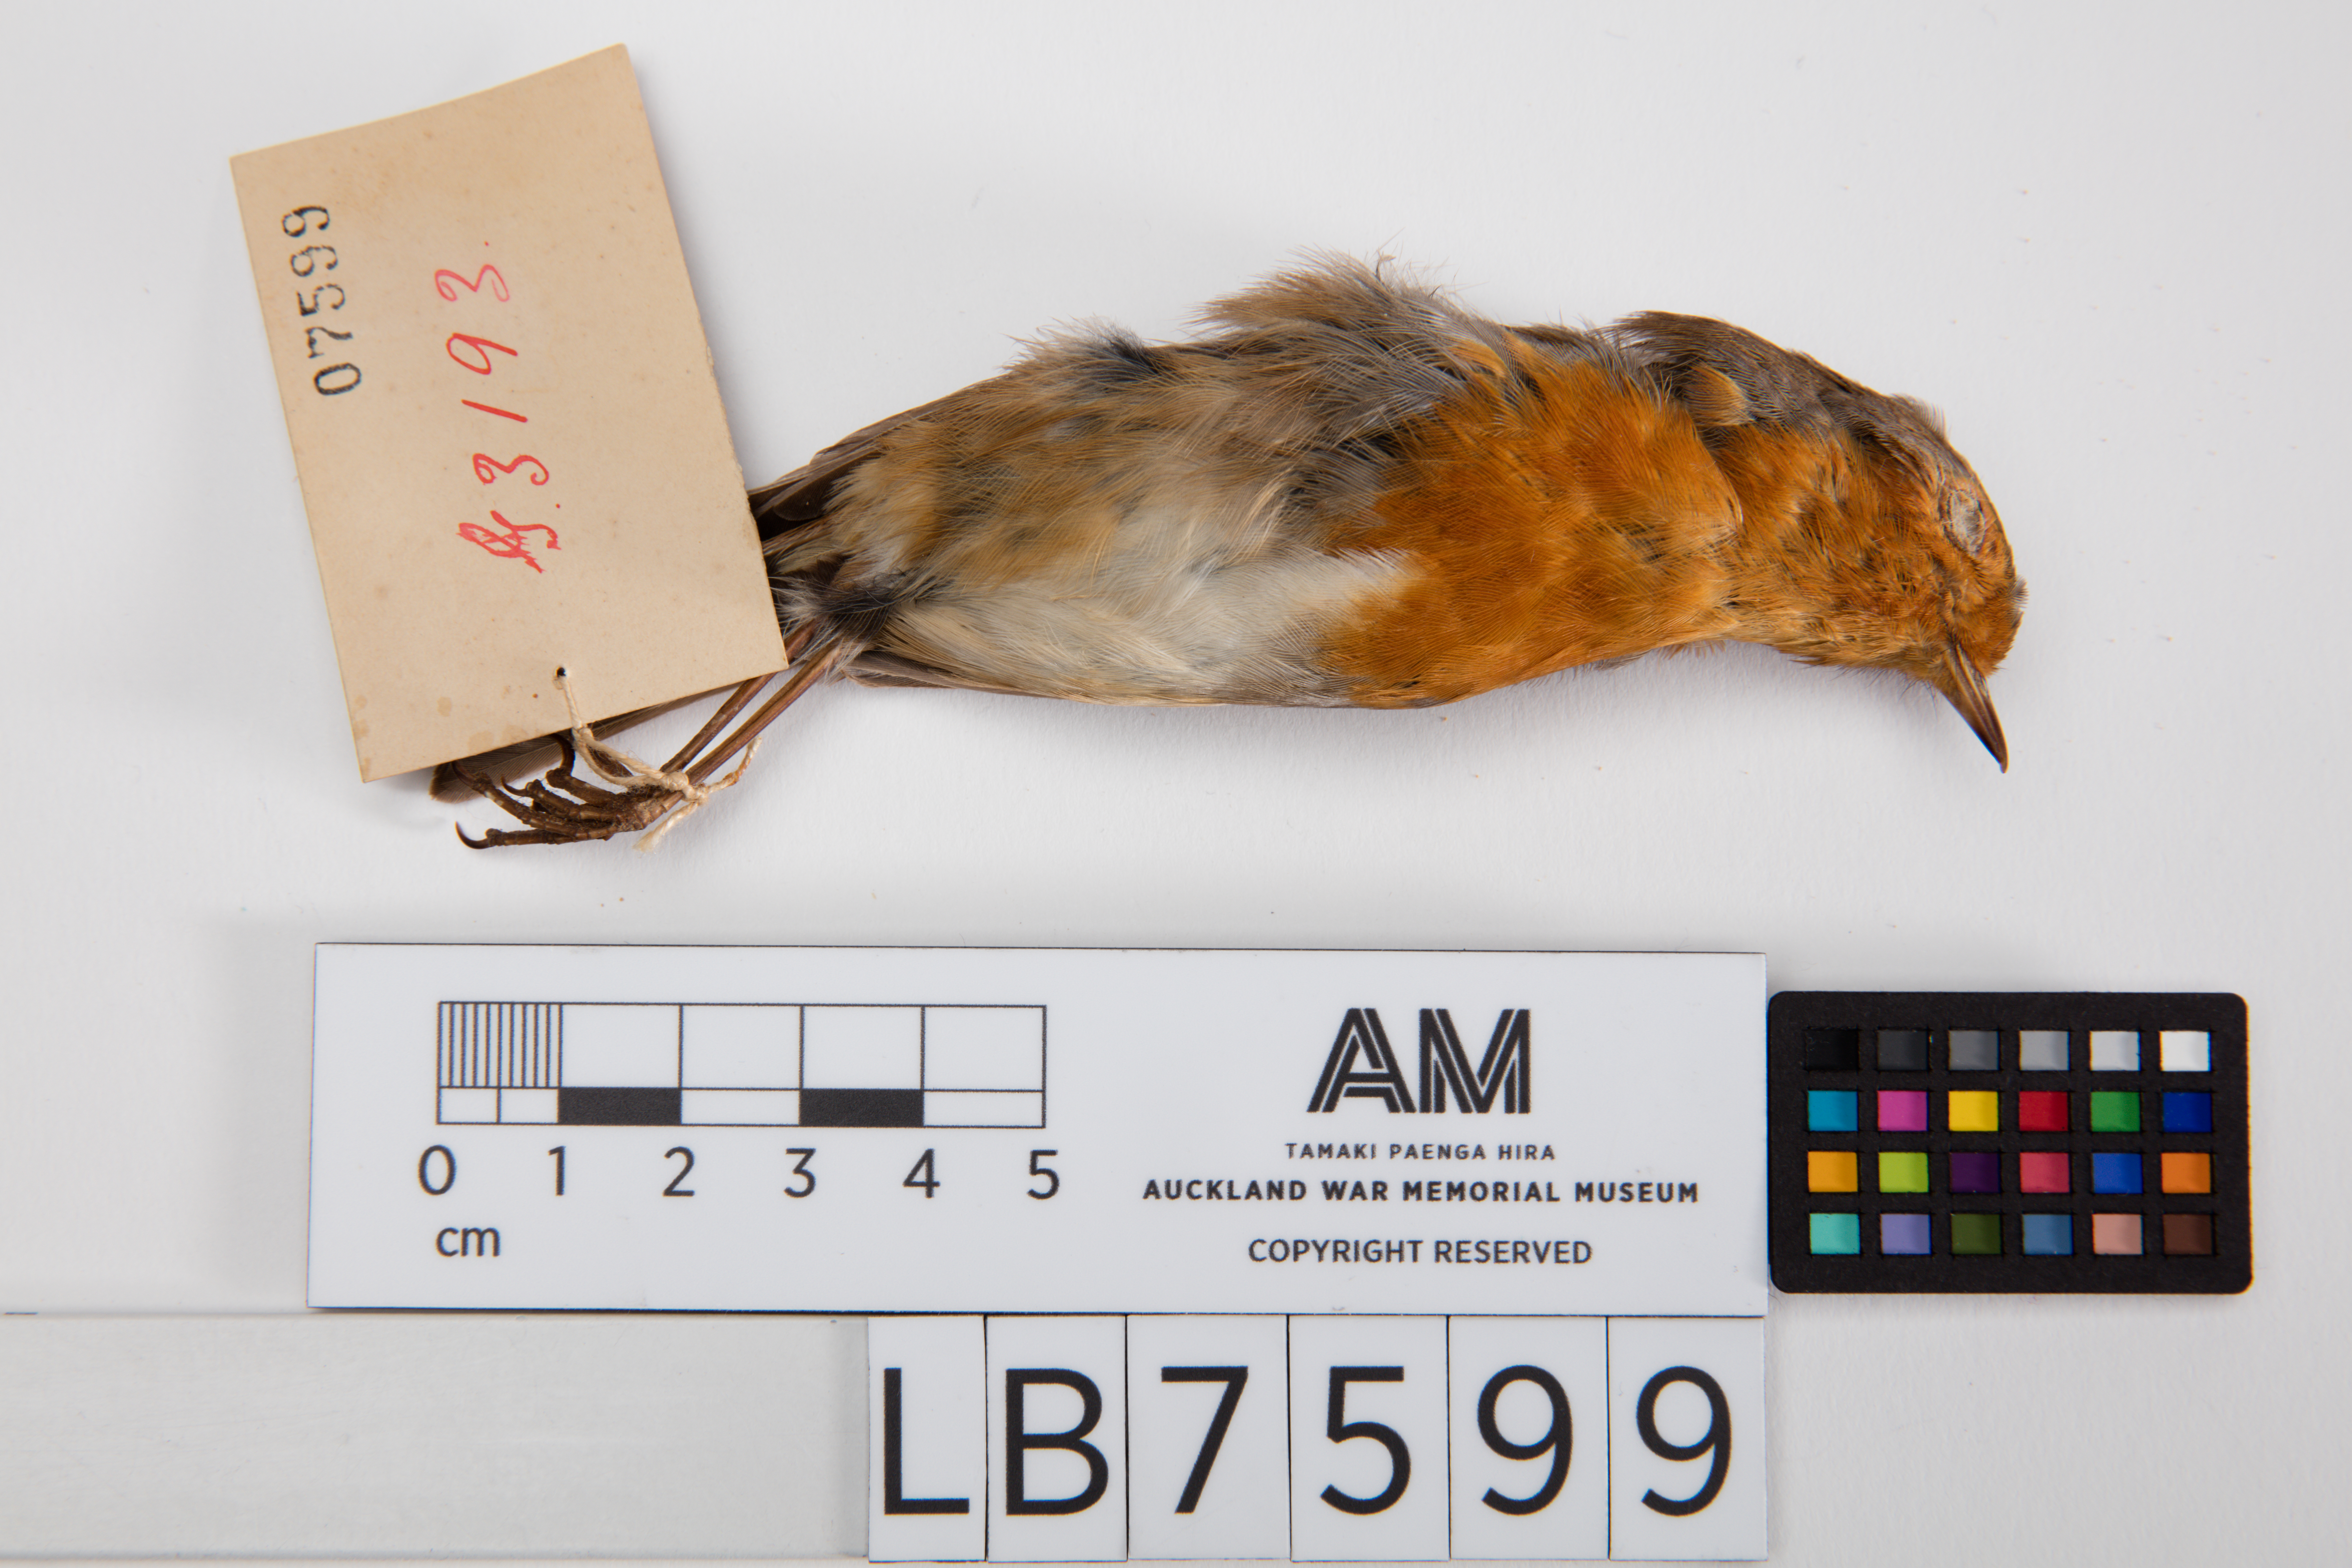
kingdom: Animalia
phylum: Chordata
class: Aves
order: Passeriformes
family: Muscicapidae
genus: Erithacus
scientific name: Erithacus rubecula
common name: European robin
